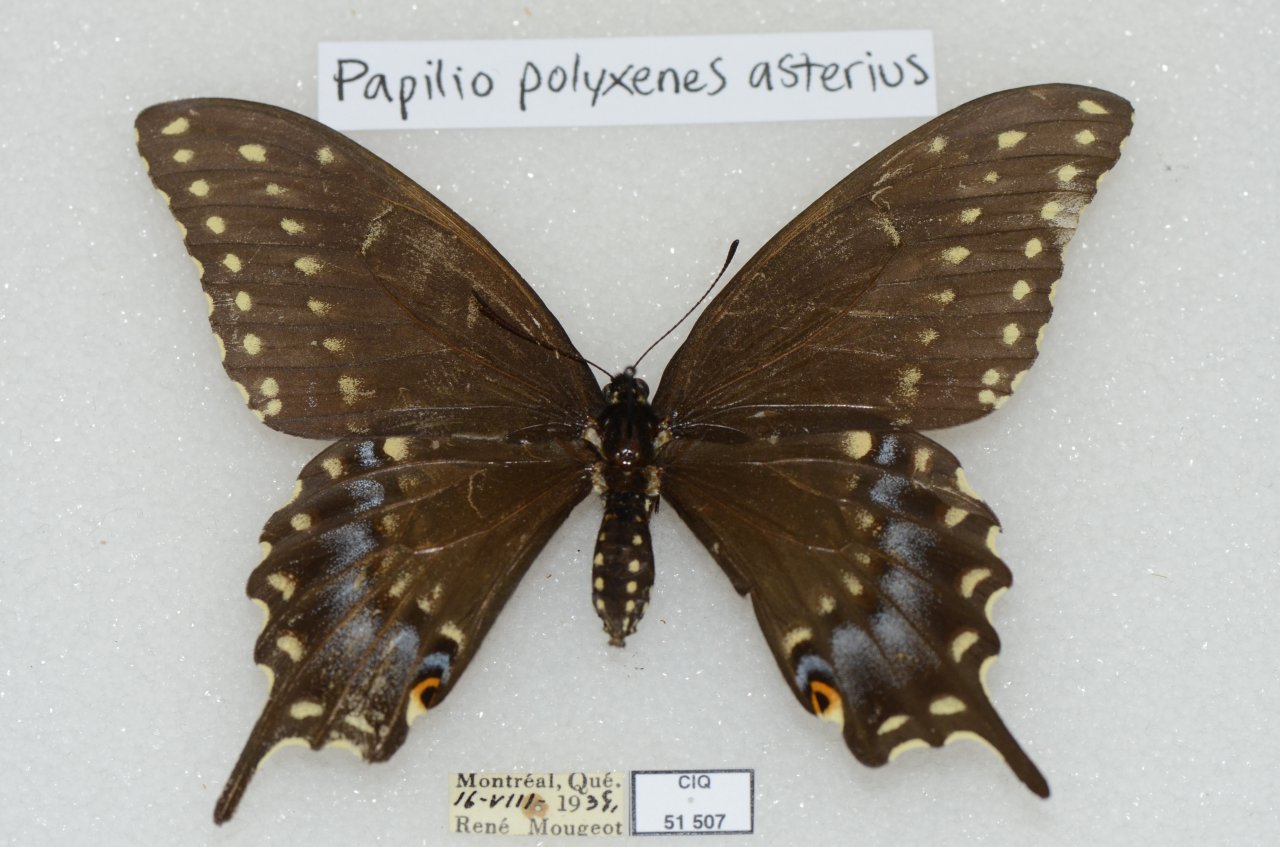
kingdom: Animalia
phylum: Arthropoda
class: Insecta
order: Lepidoptera
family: Papilionidae
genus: Papilio
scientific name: Papilio polyxenes
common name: Black Swallowtail
